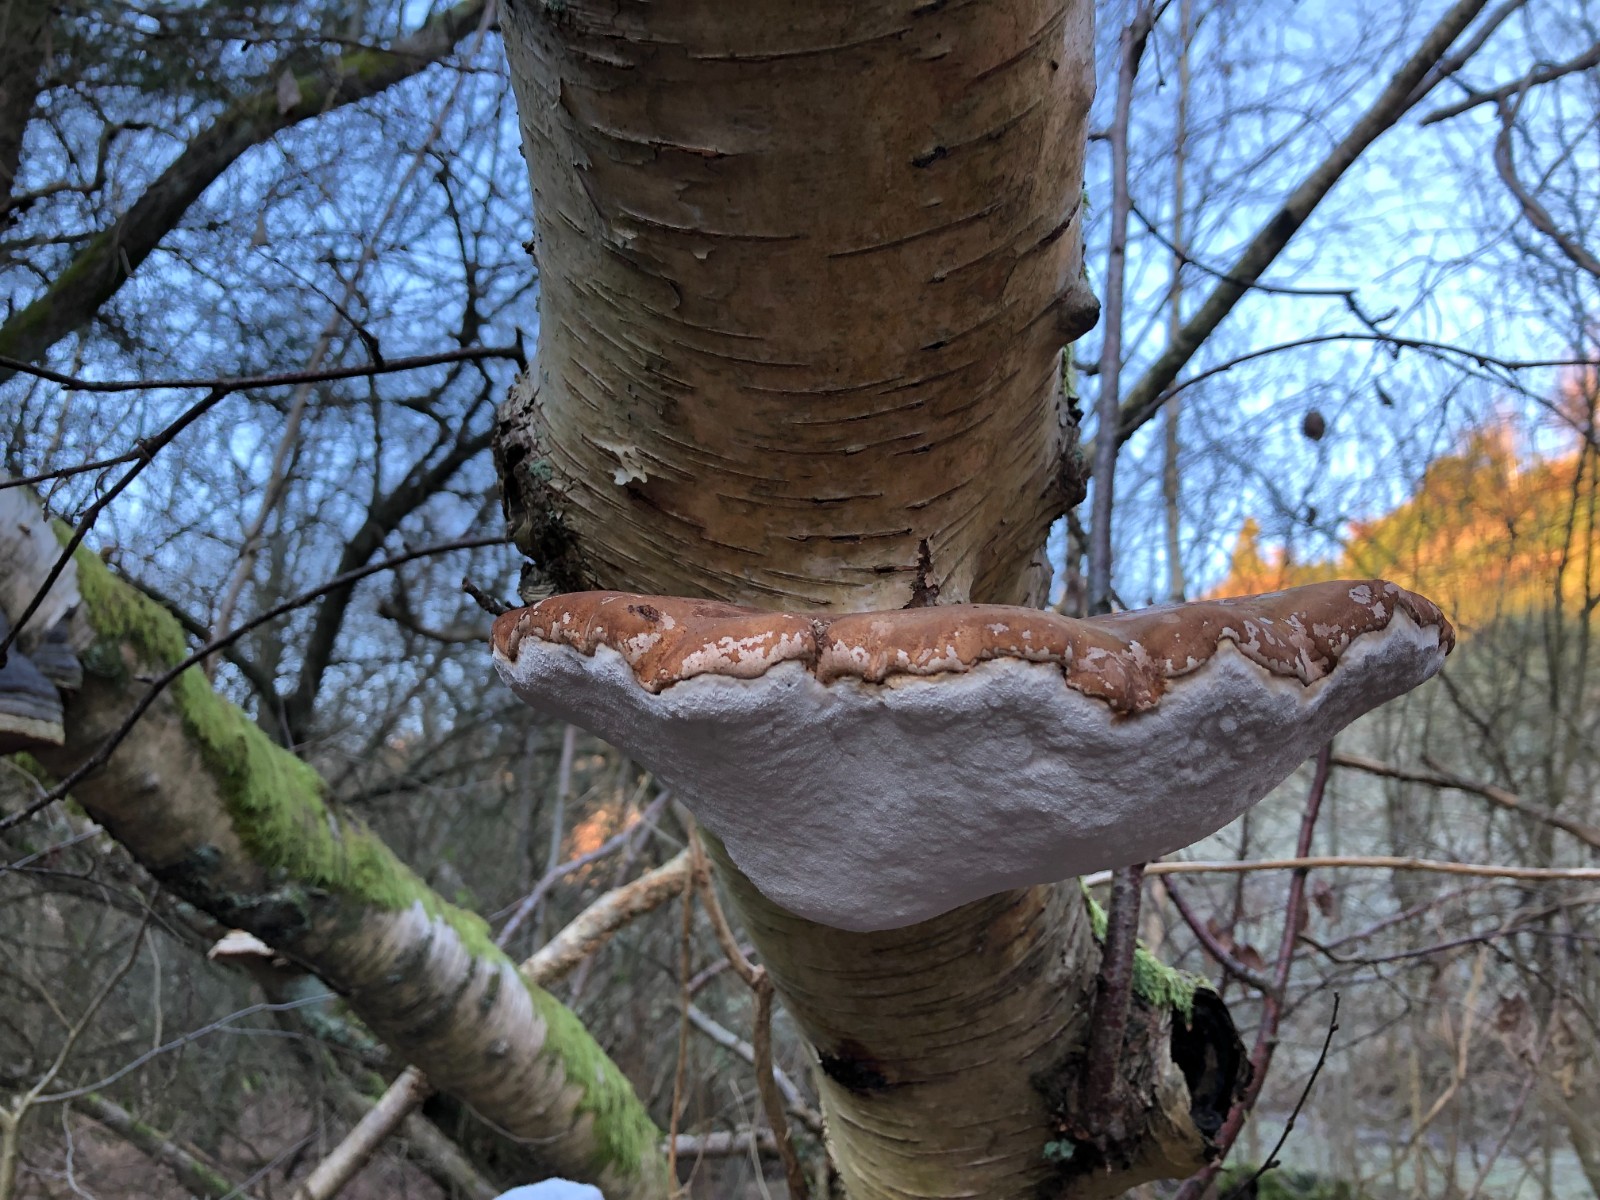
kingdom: Fungi
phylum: Basidiomycota
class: Agaricomycetes
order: Polyporales
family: Fomitopsidaceae
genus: Fomitopsis
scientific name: Fomitopsis betulina
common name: birkeporesvamp
